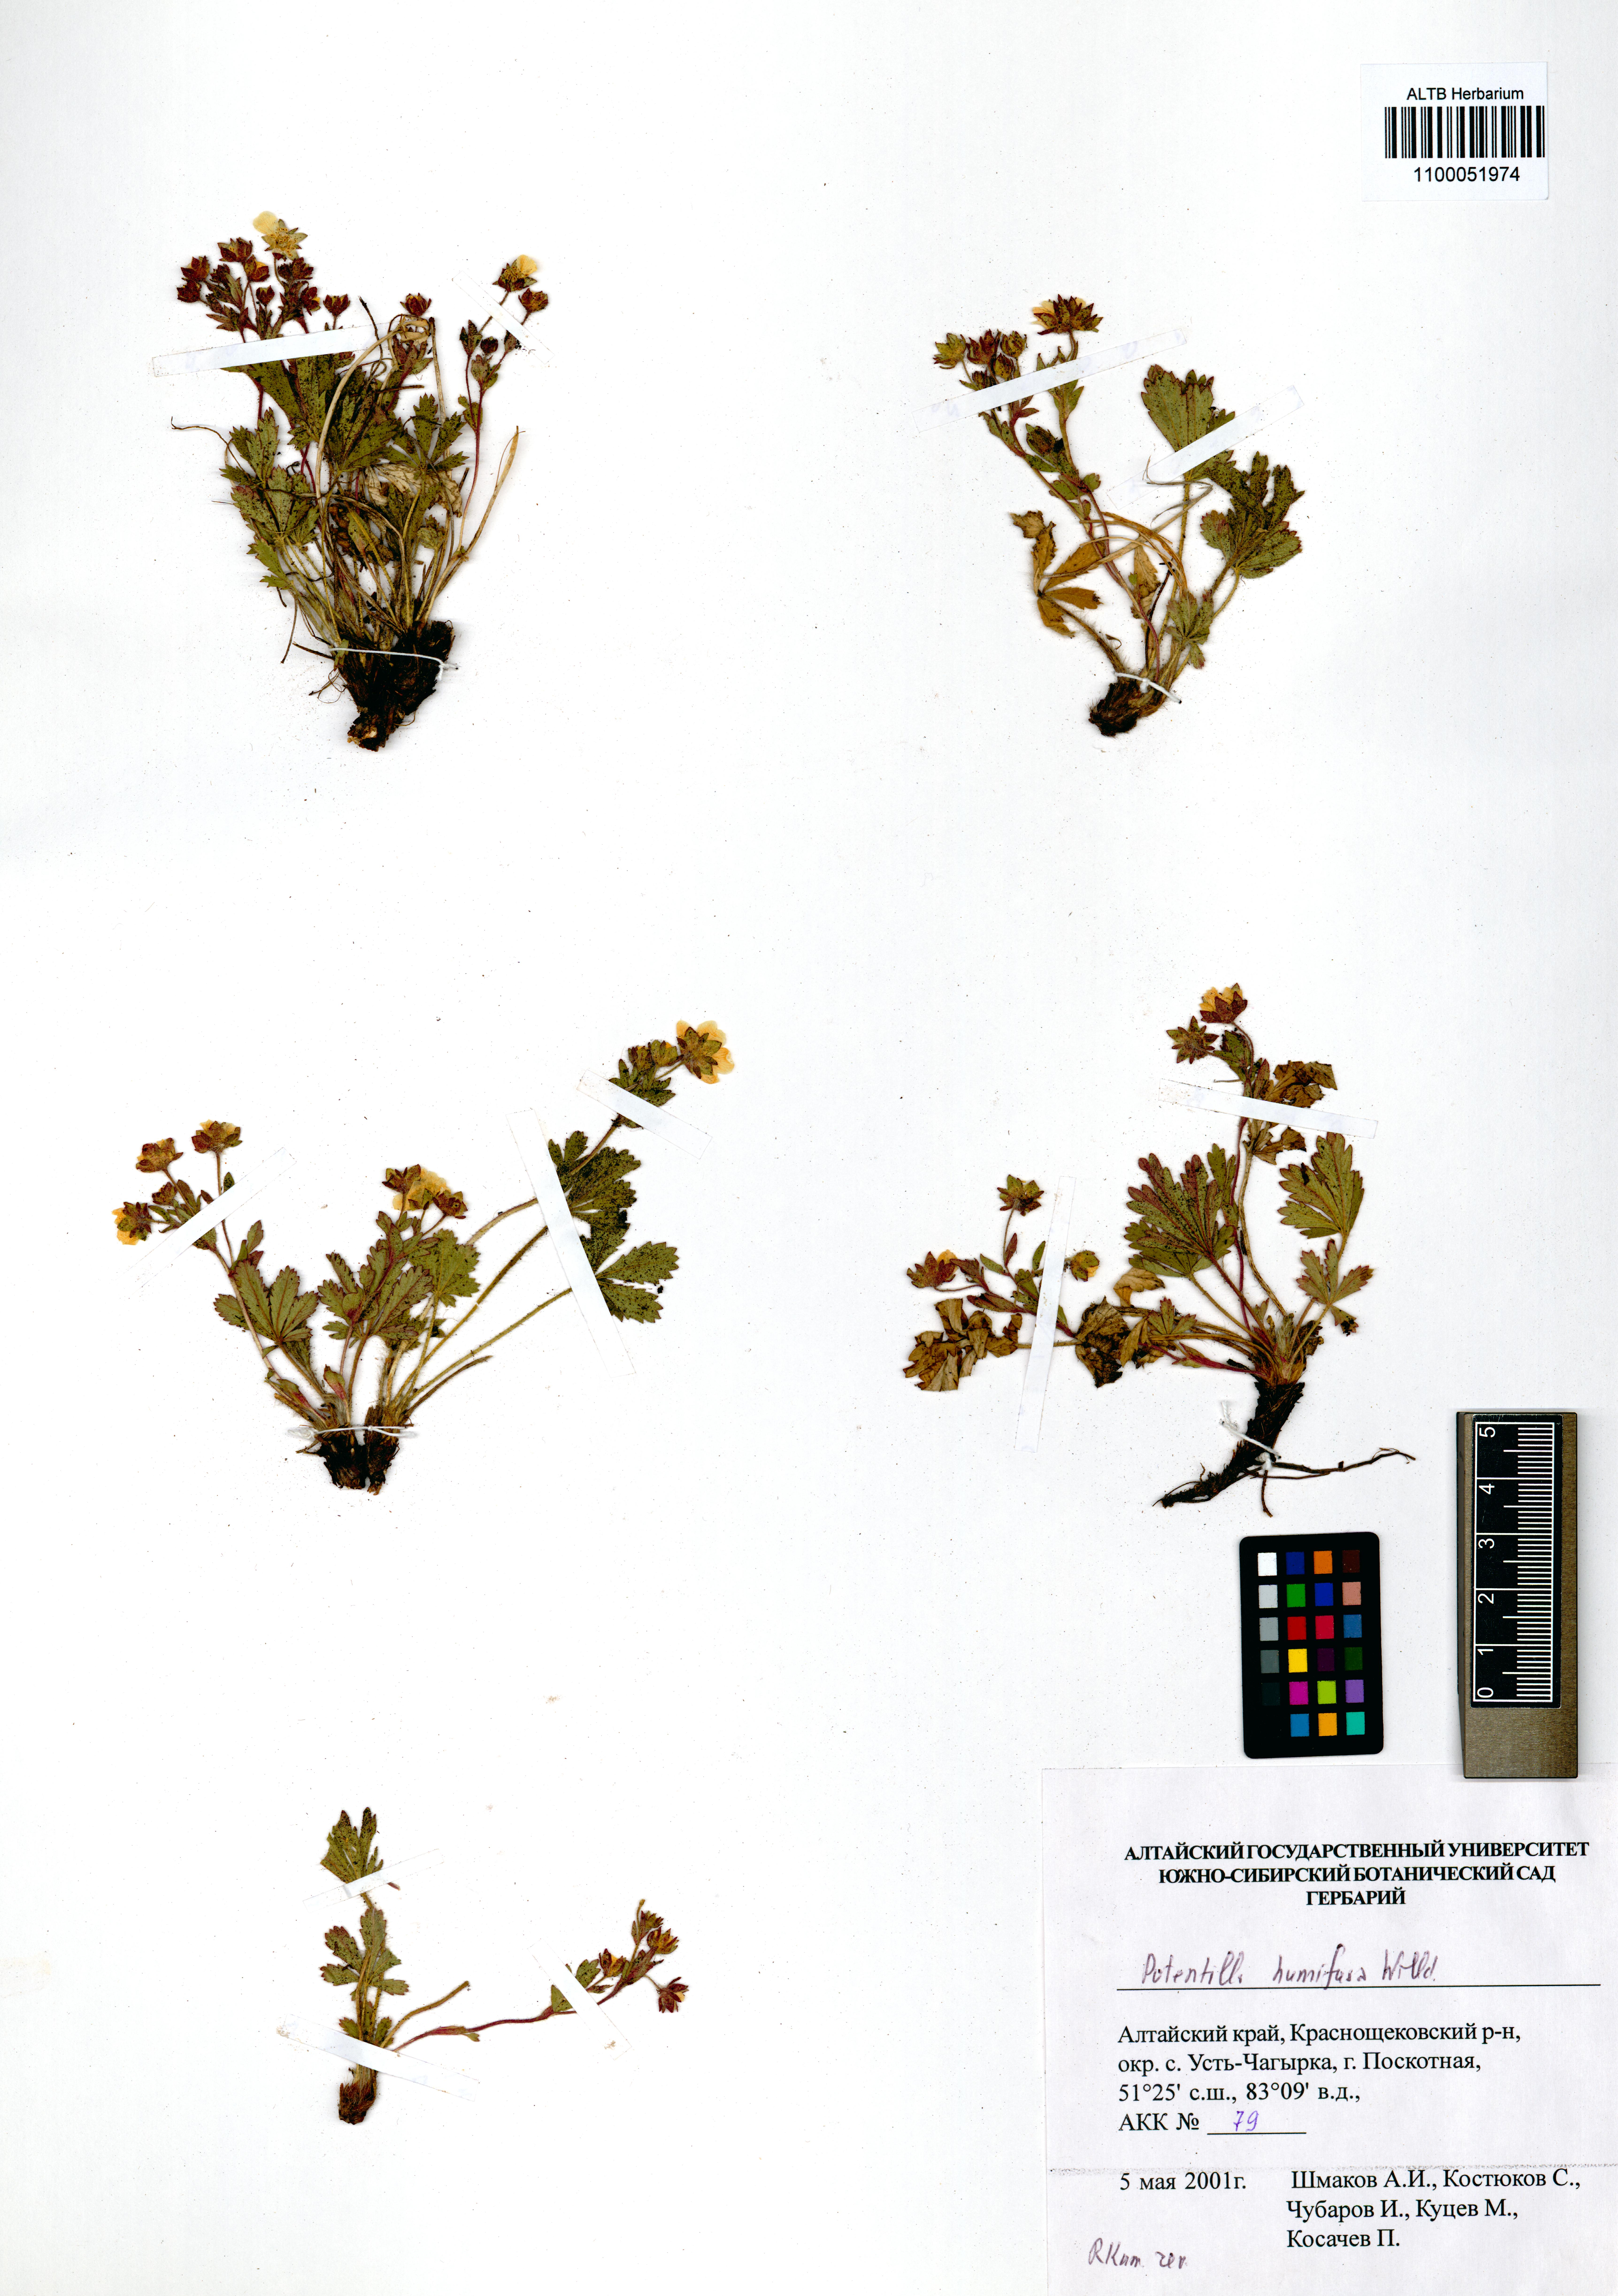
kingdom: Plantae
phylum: Tracheophyta
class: Magnoliopsida
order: Rosales
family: Rosaceae
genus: Potentilla
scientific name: Potentilla humifusa
